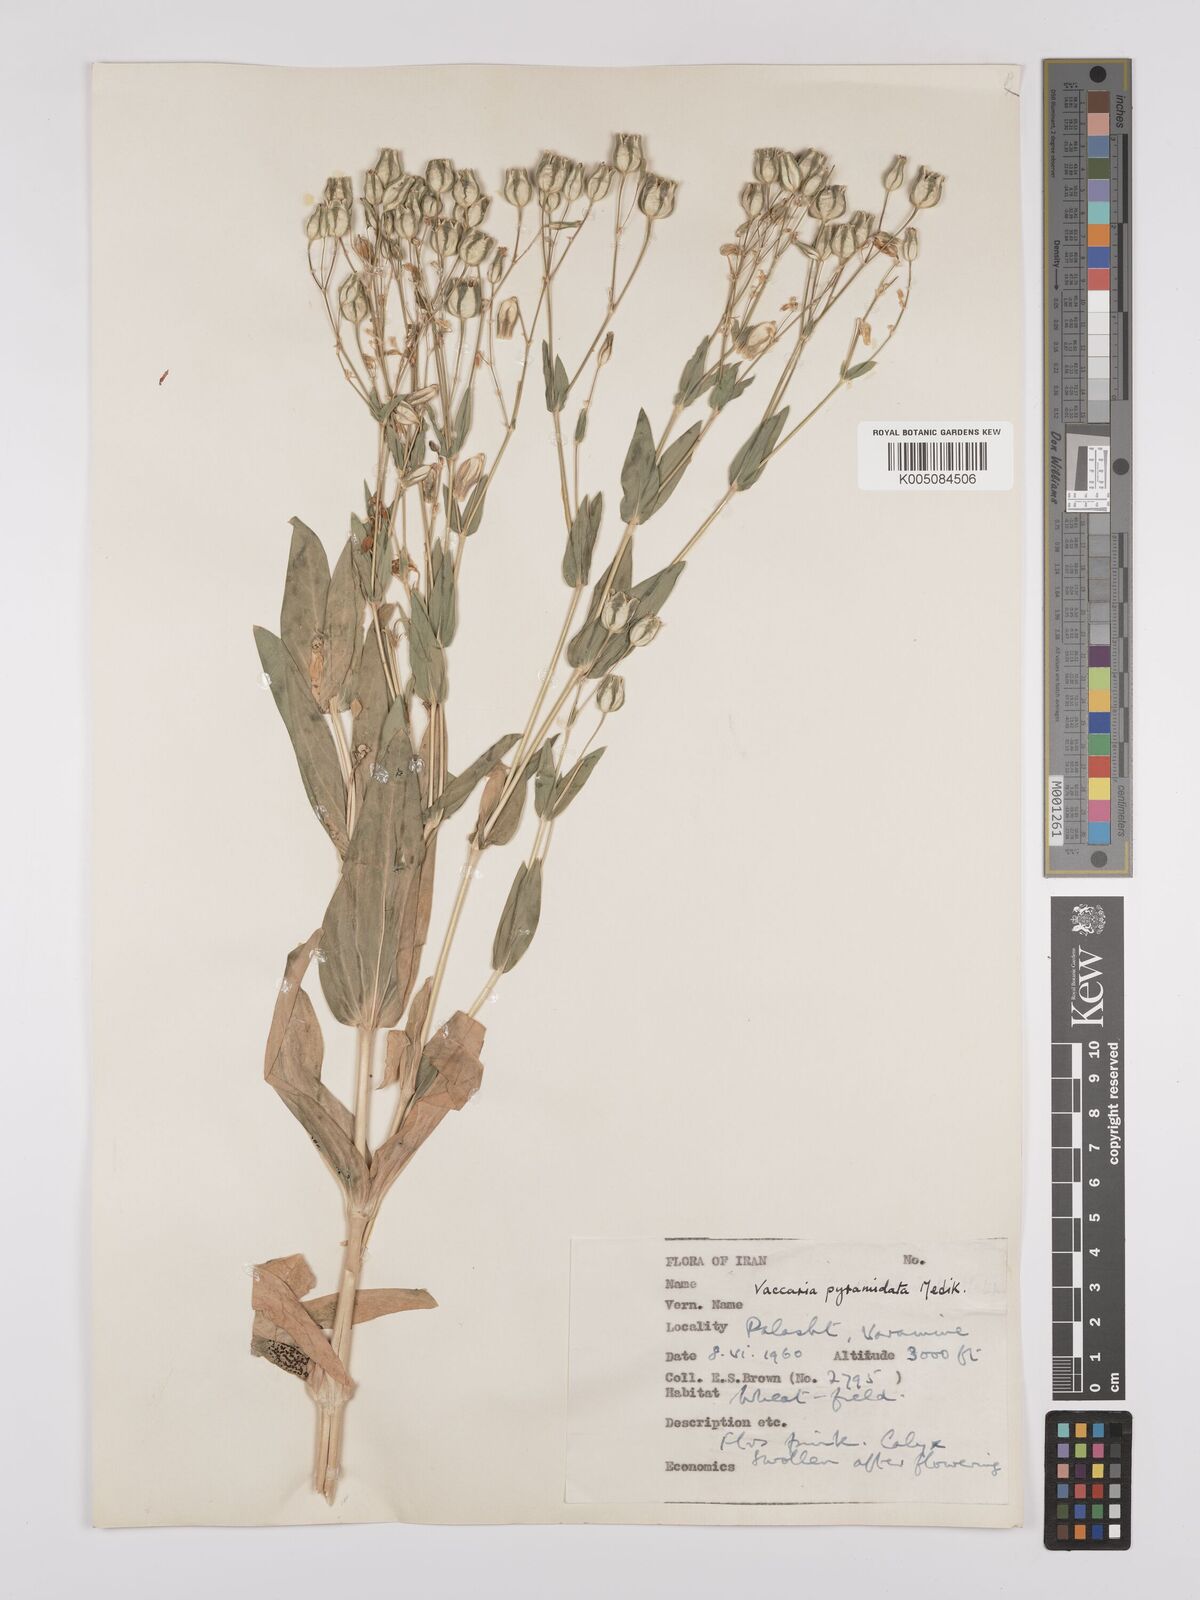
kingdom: Plantae
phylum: Tracheophyta
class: Magnoliopsida
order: Caryophyllales
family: Caryophyllaceae
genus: Gypsophila
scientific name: Gypsophila vaccaria
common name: Cow soapwort
